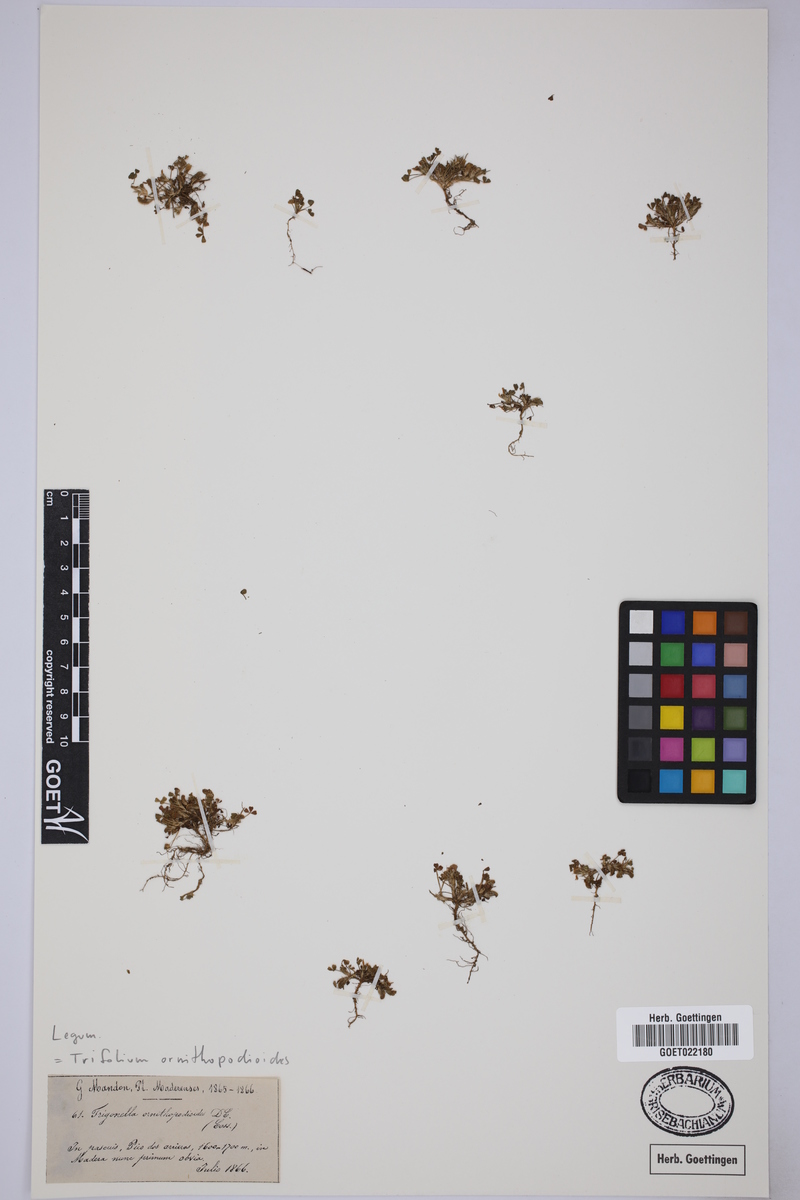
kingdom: Plantae
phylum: Tracheophyta
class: Magnoliopsida
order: Fabales
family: Fabaceae
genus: Trifolium
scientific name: Trifolium ornithopodioides
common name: Bird's-foot clover
